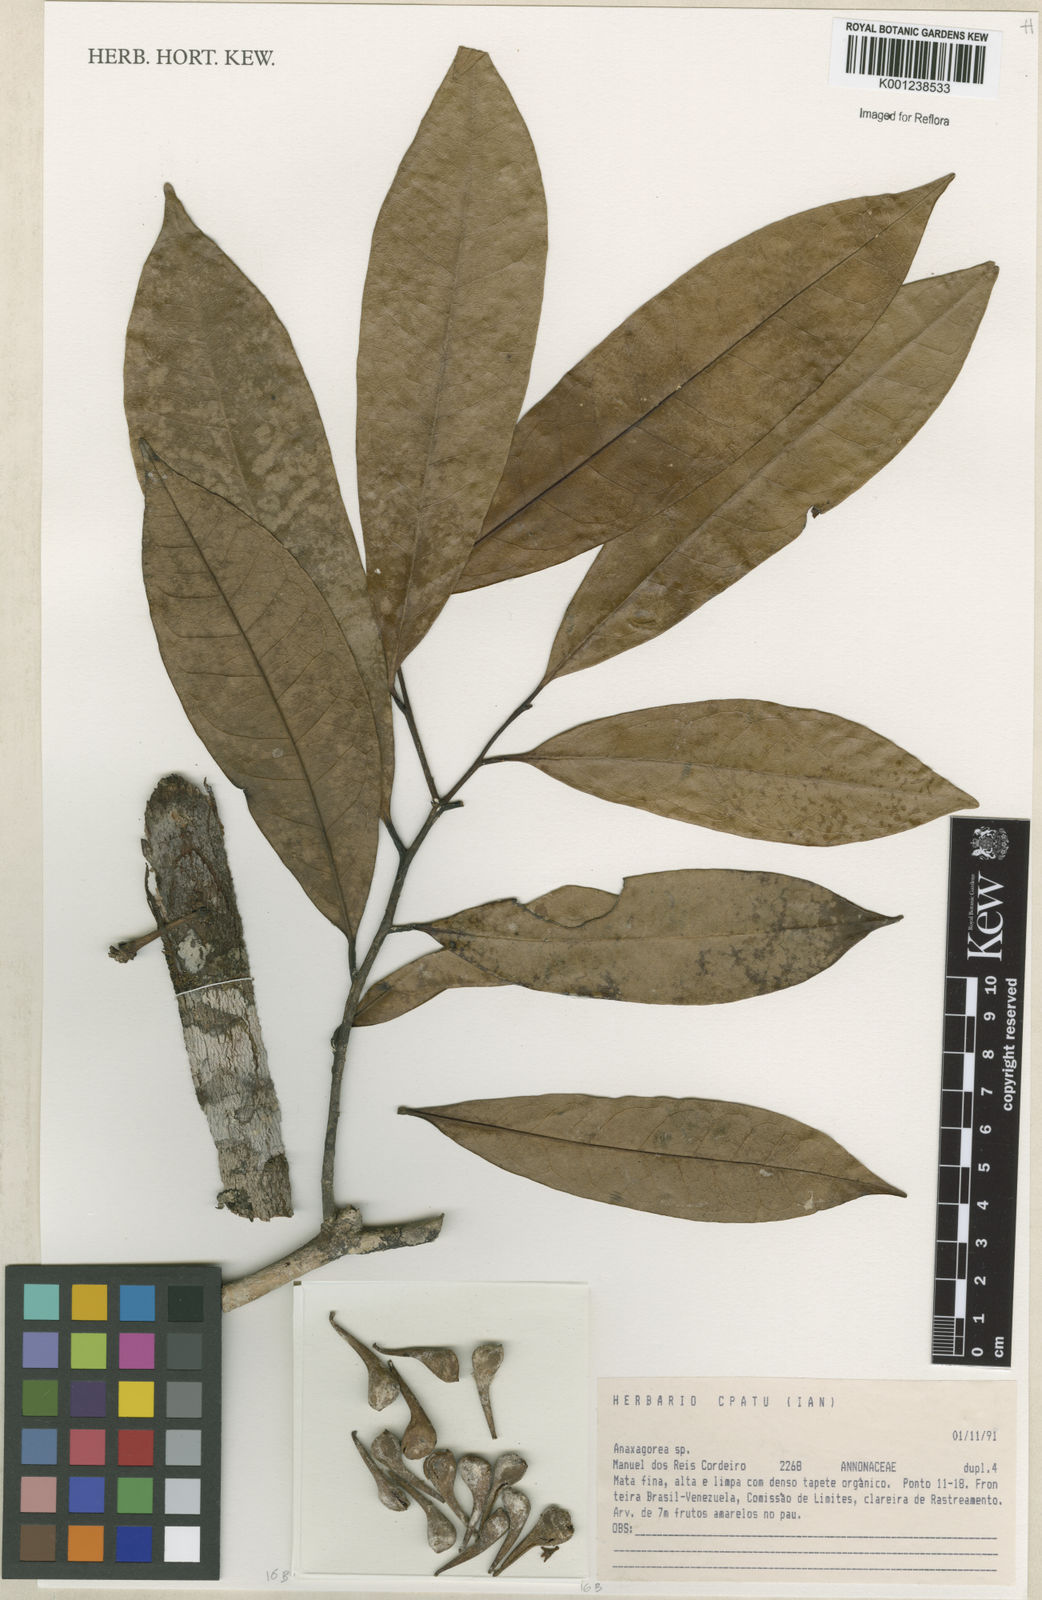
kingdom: Plantae
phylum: Tracheophyta
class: Magnoliopsida
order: Magnoliales
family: Annonaceae
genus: Anaxagorea
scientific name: Anaxagorea
